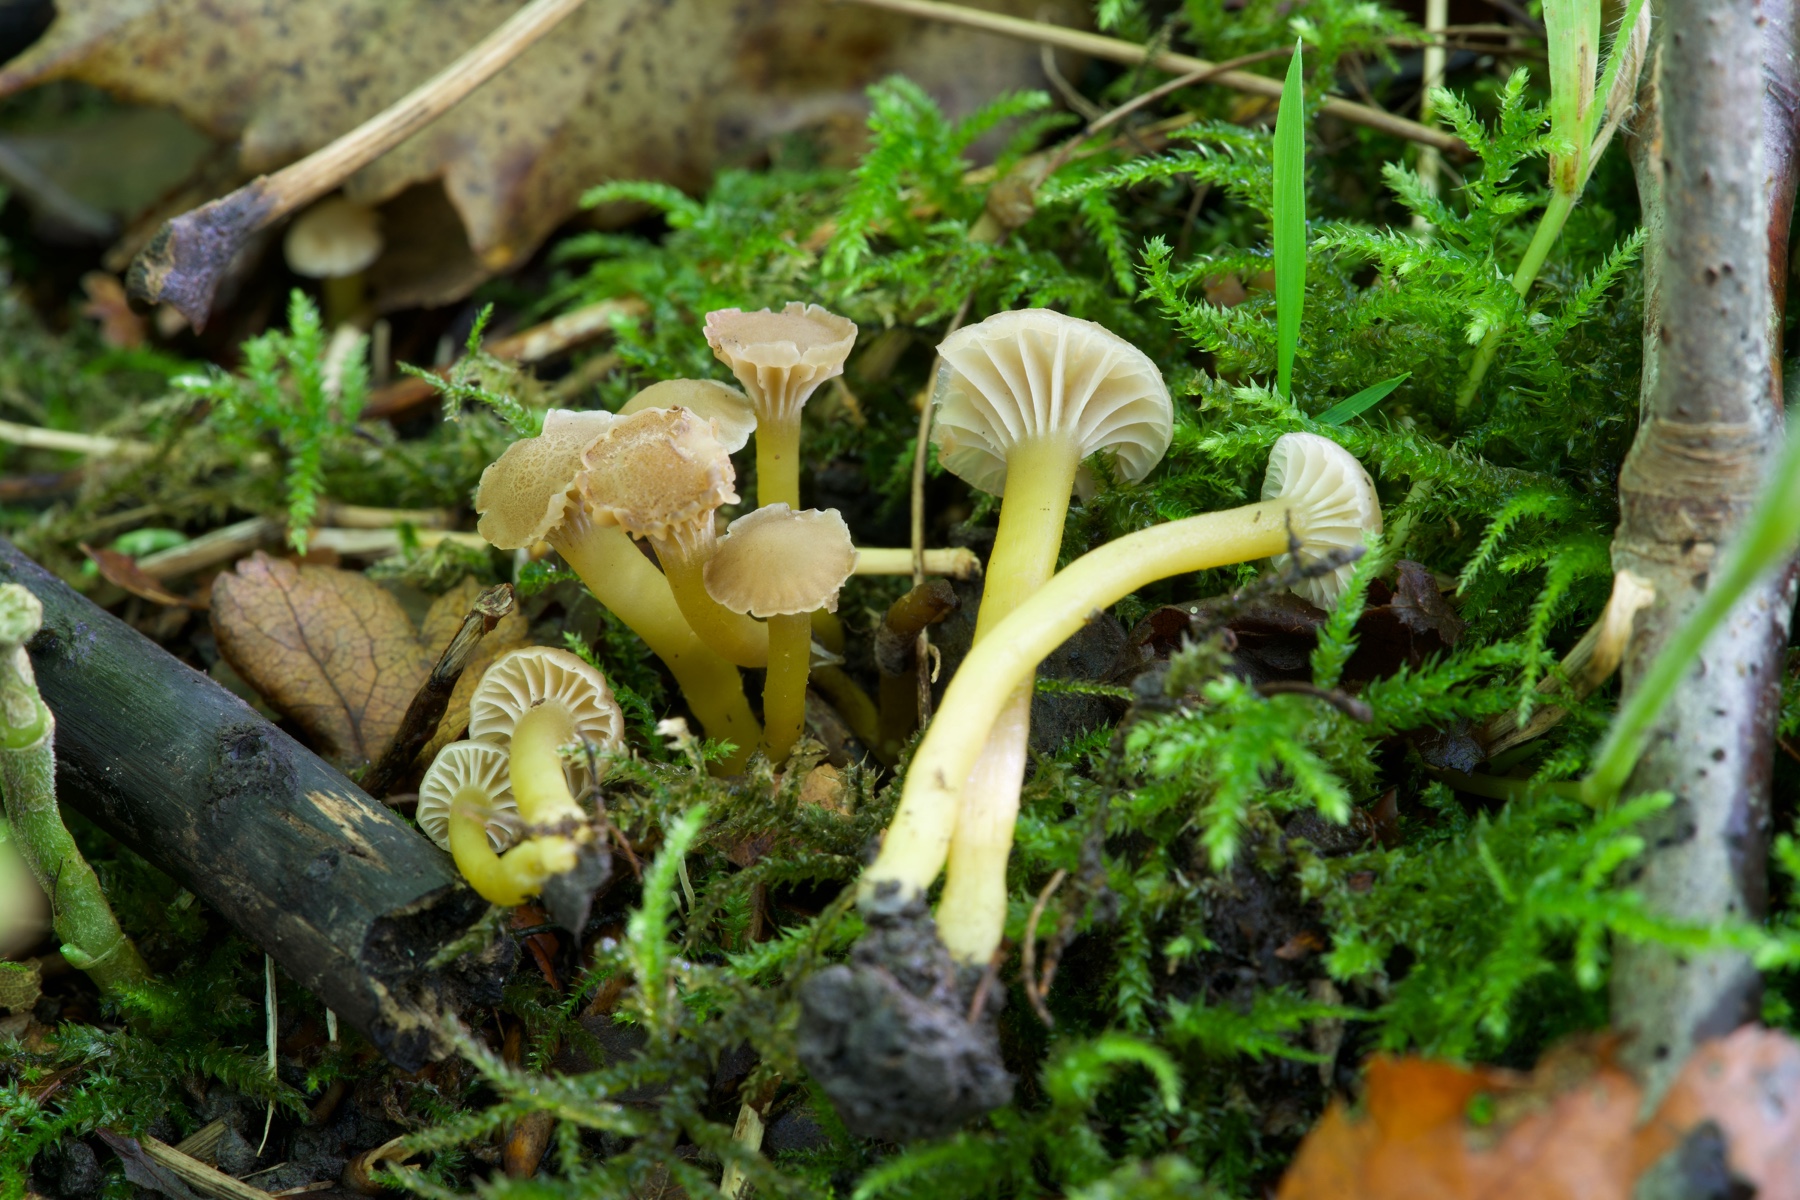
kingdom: Fungi
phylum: Basidiomycota
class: Agaricomycetes
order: Agaricales
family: Clavariaceae
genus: Hodophilus
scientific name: Hodophilus phaeoxanthus
